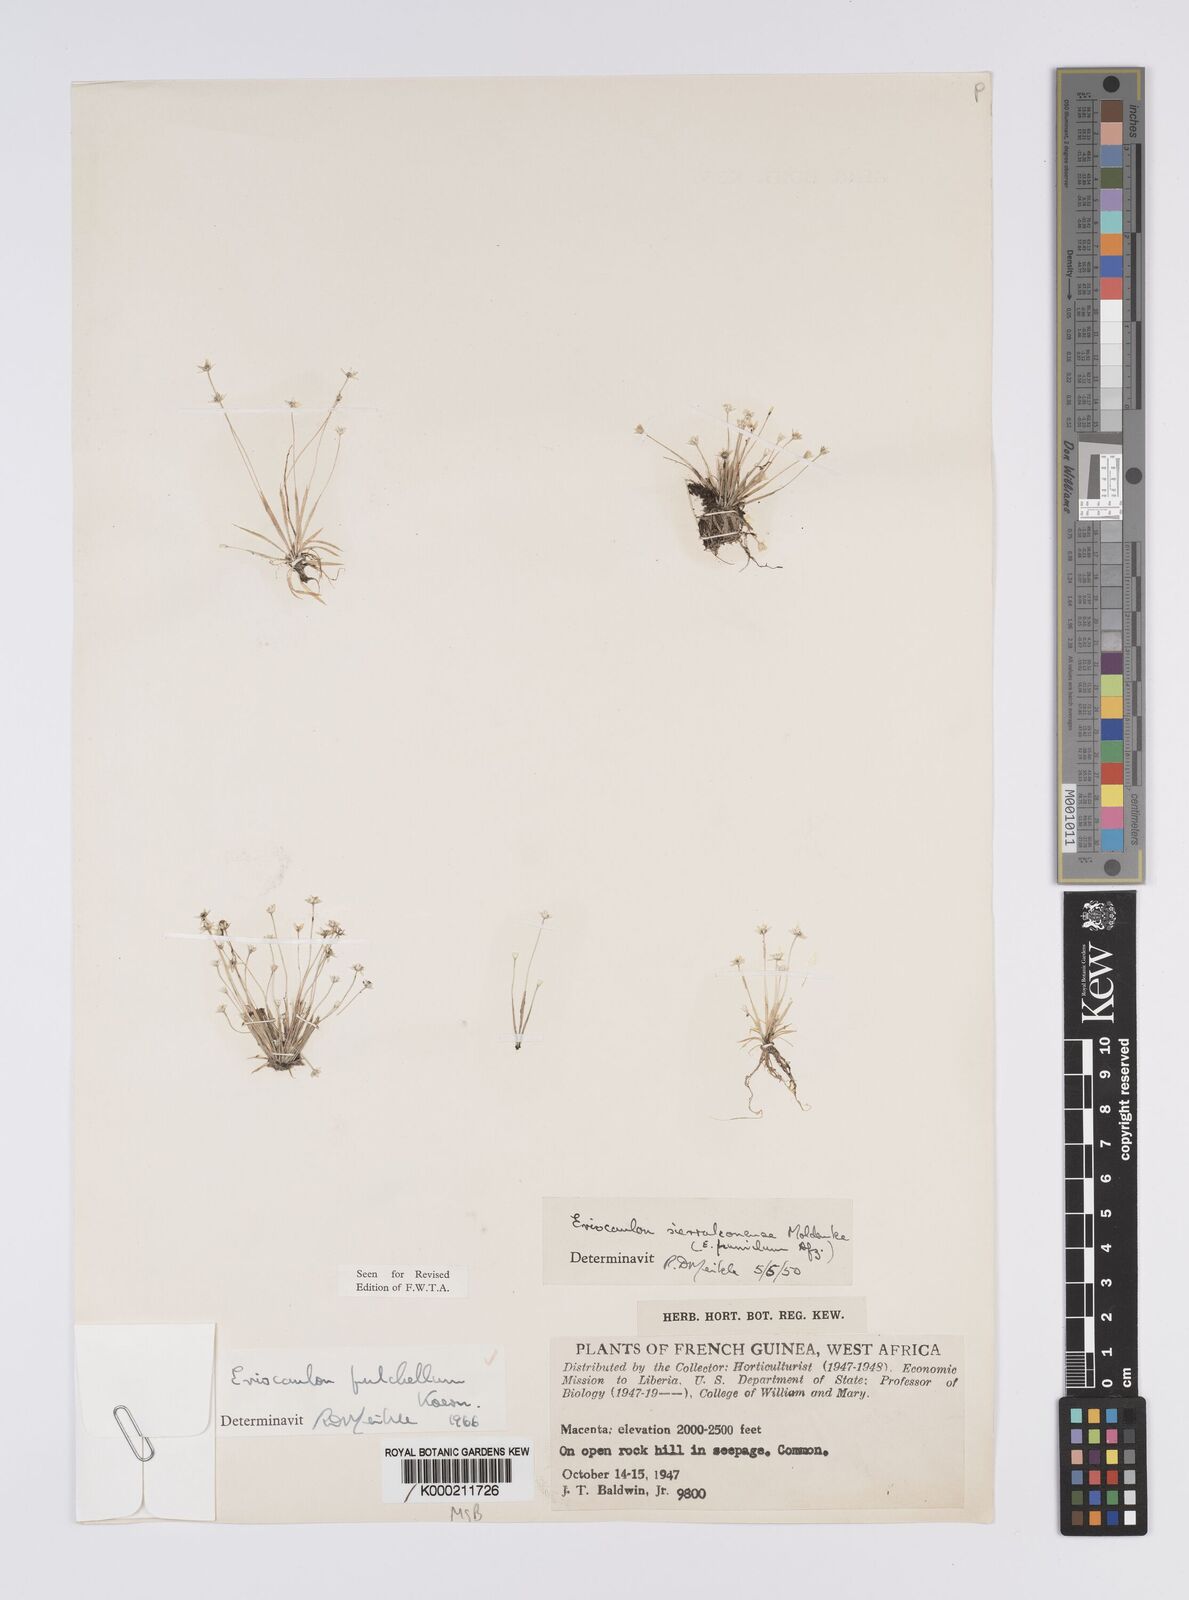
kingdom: Plantae
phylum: Tracheophyta
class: Liliopsida
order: Poales
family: Eriocaulaceae
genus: Eriocaulon
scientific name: Eriocaulon
